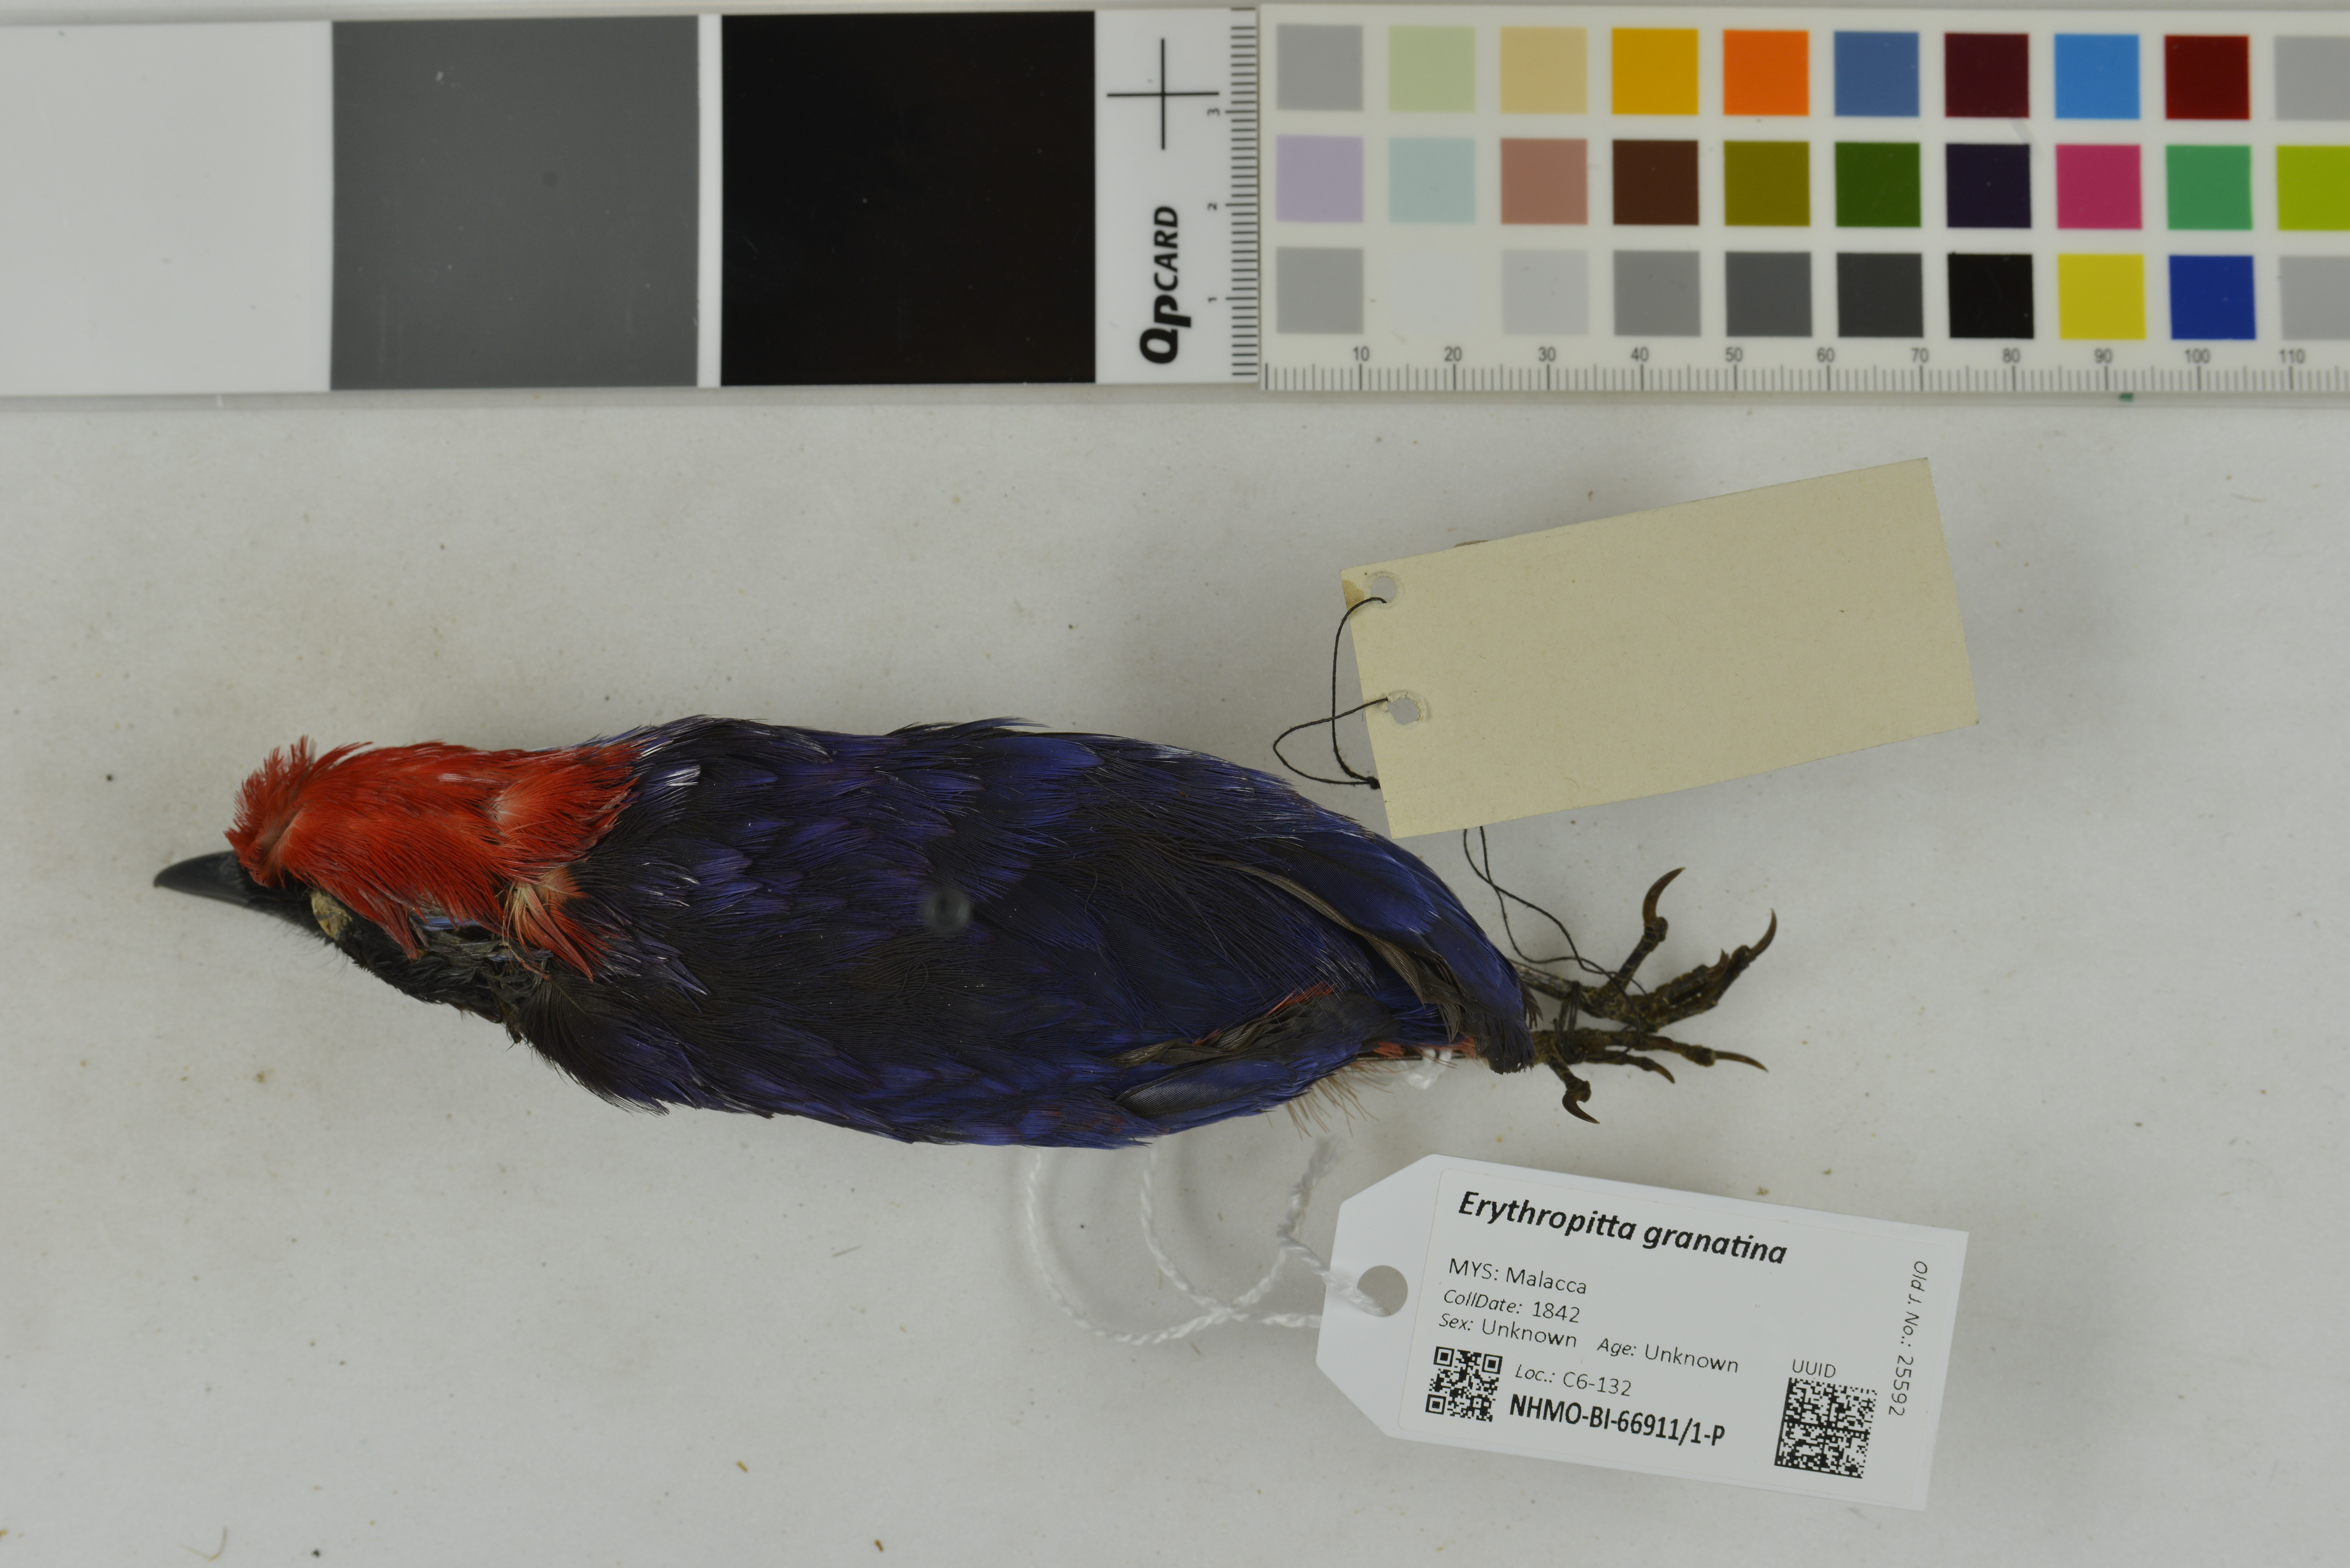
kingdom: Animalia
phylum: Chordata
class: Aves
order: Passeriformes
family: Pittidae
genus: Pitta
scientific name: Pitta granatina
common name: Garnet pitta
